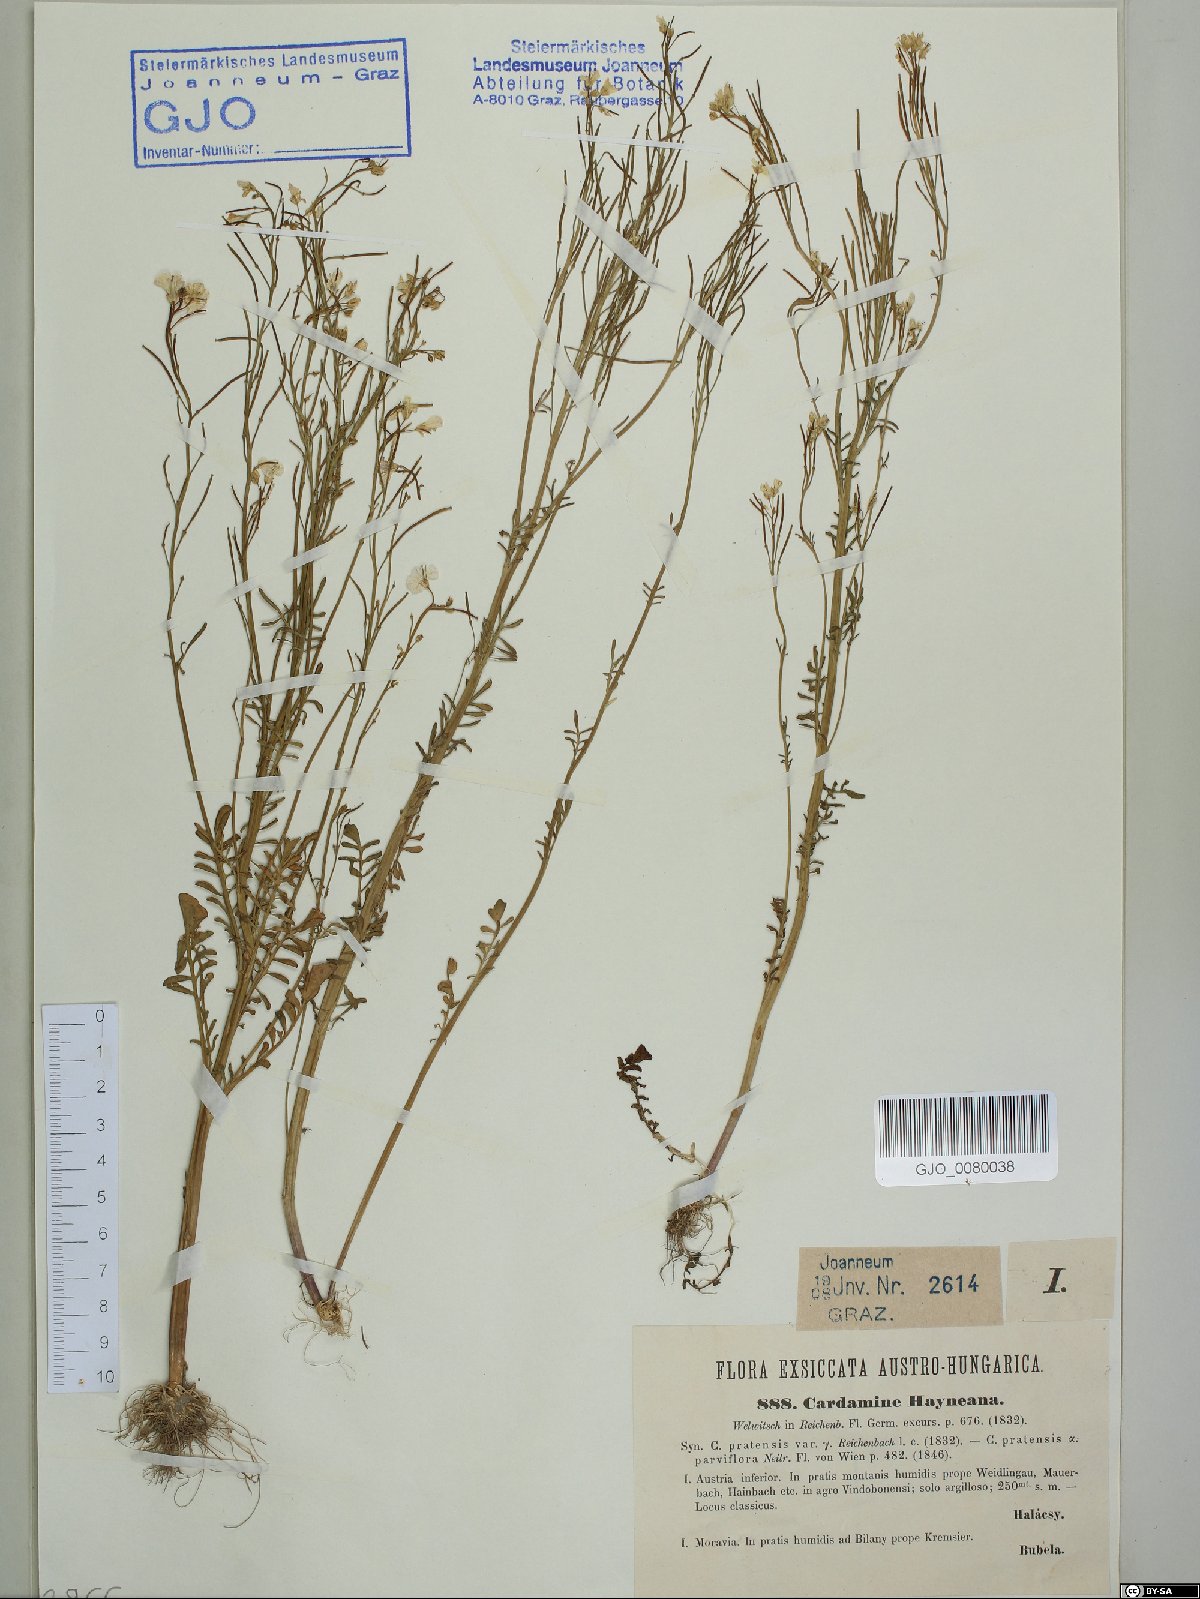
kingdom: Plantae
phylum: Tracheophyta
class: Magnoliopsida
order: Brassicales
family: Brassicaceae
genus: Cardamine
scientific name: Cardamine matthioli
